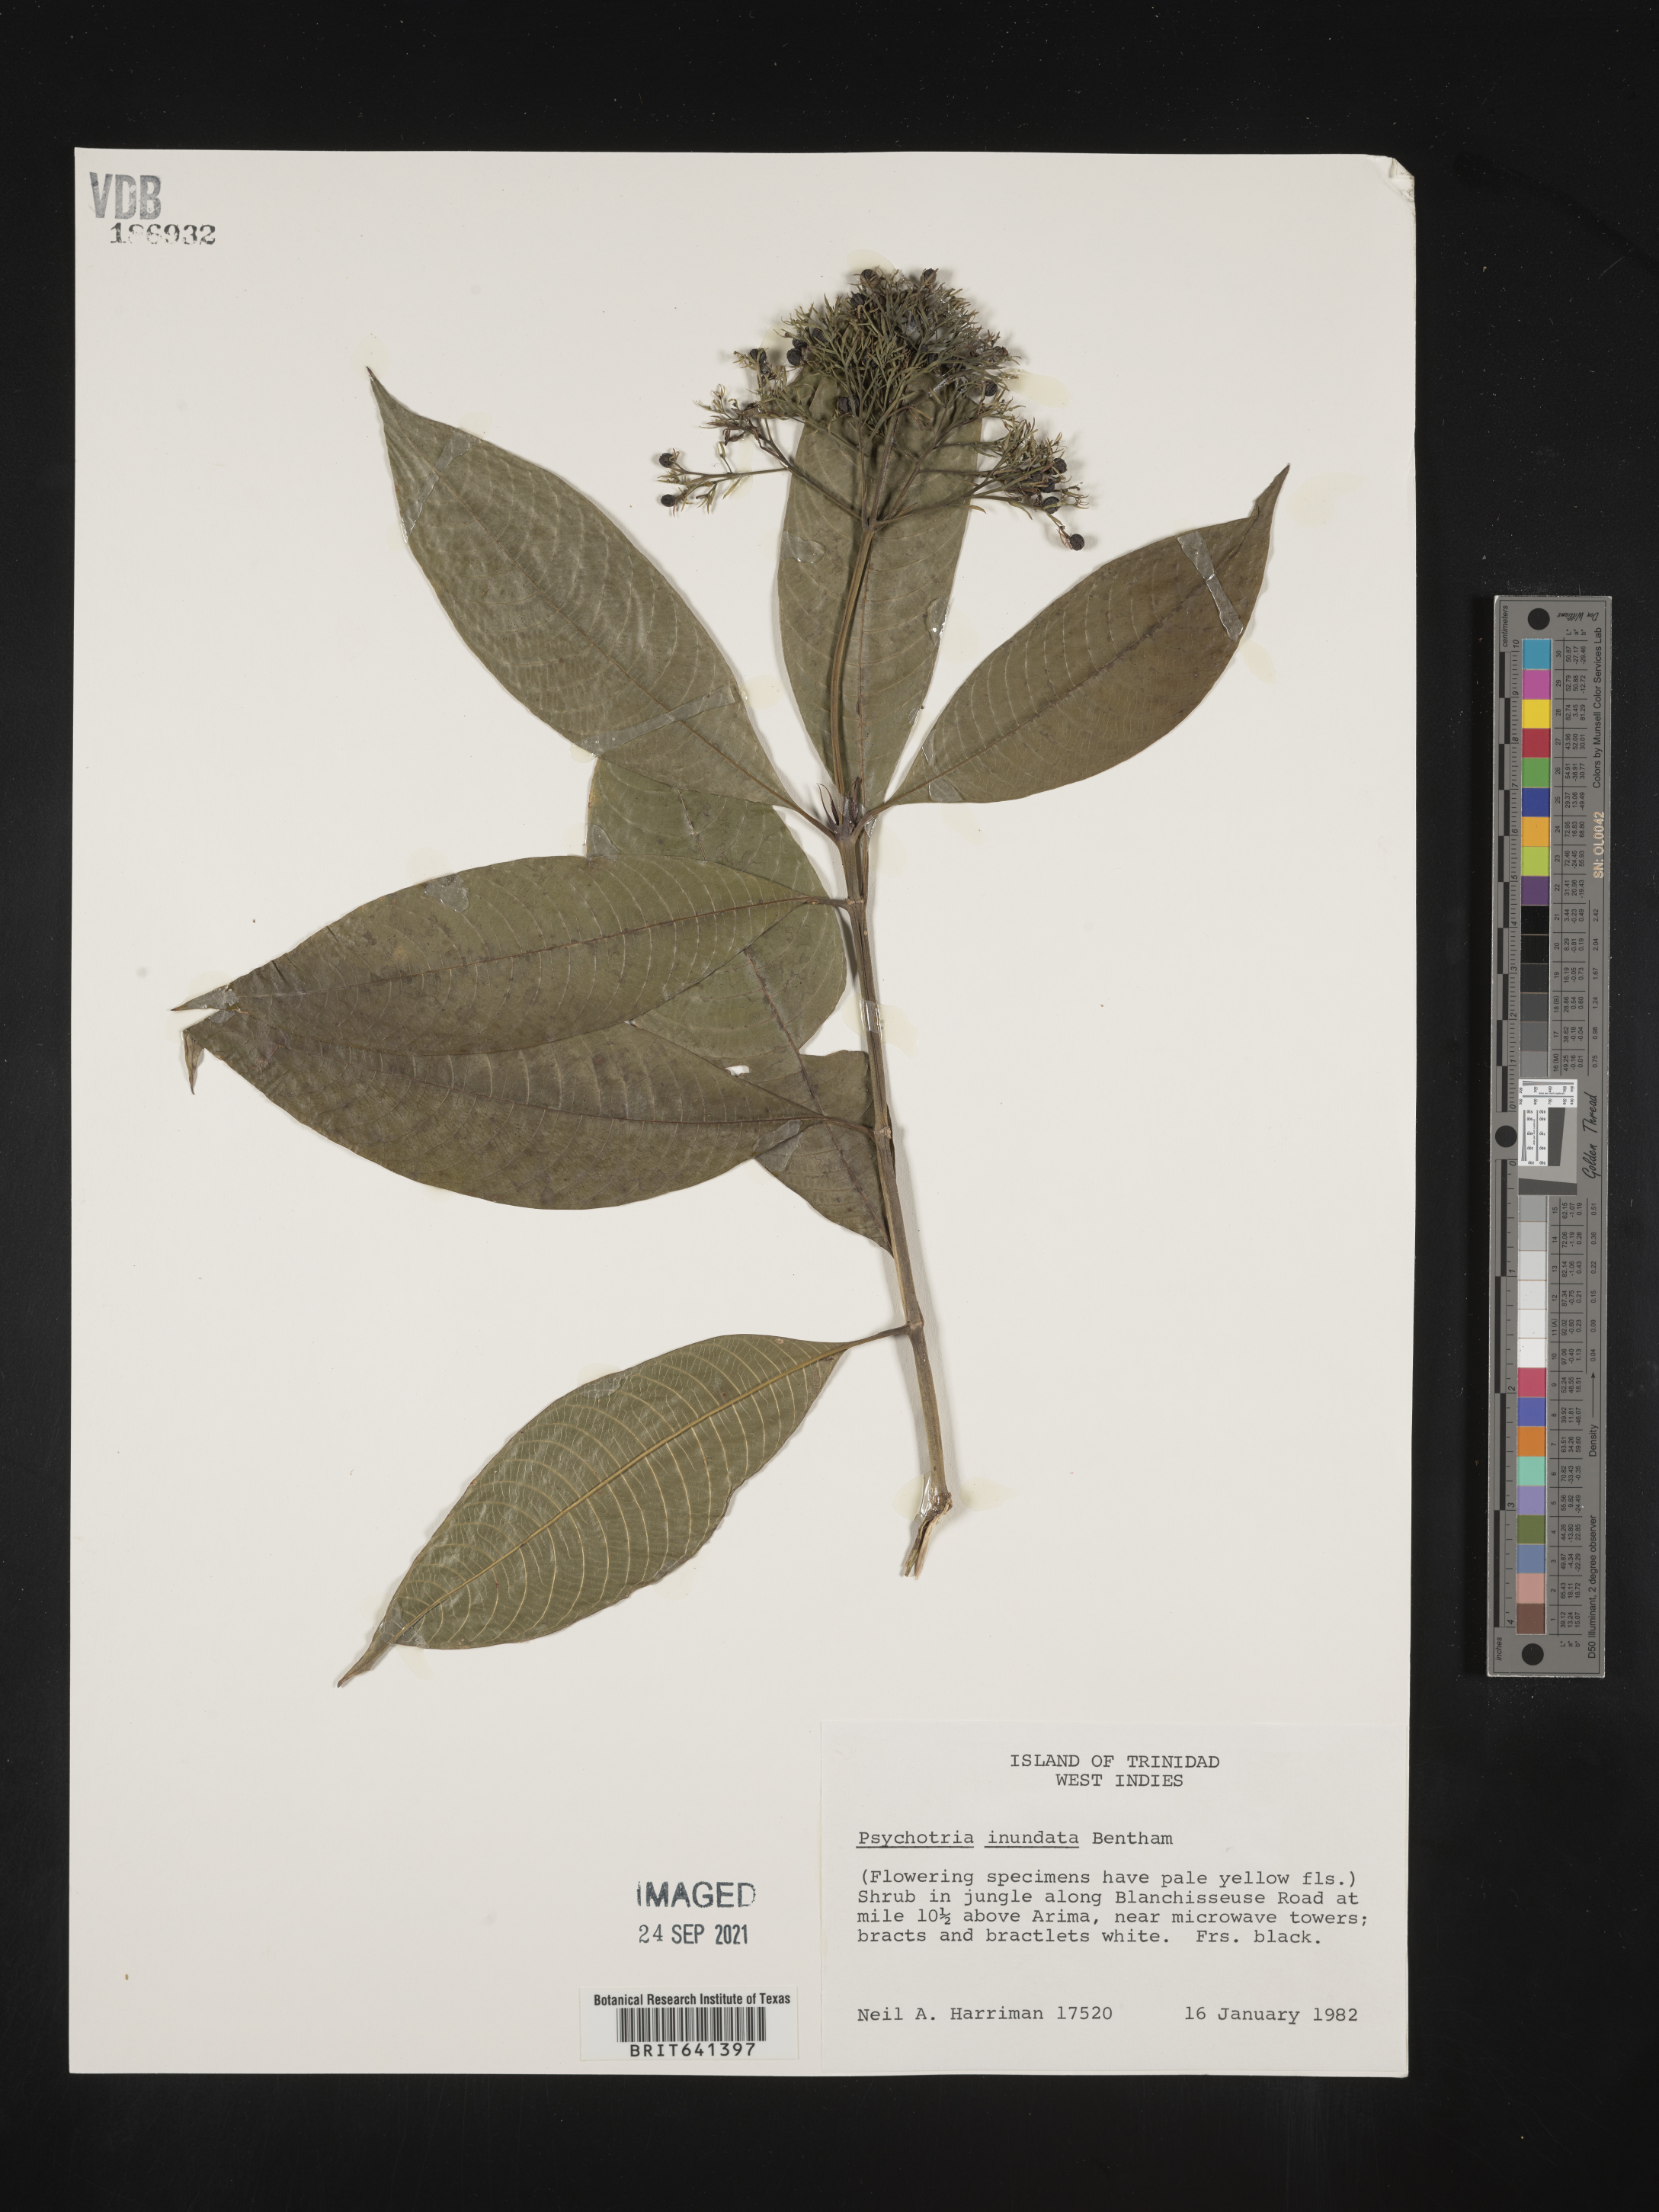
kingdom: Plantae
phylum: Tracheophyta
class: Magnoliopsida
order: Gentianales
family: Rubiaceae
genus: Psychotria
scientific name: Psychotria
